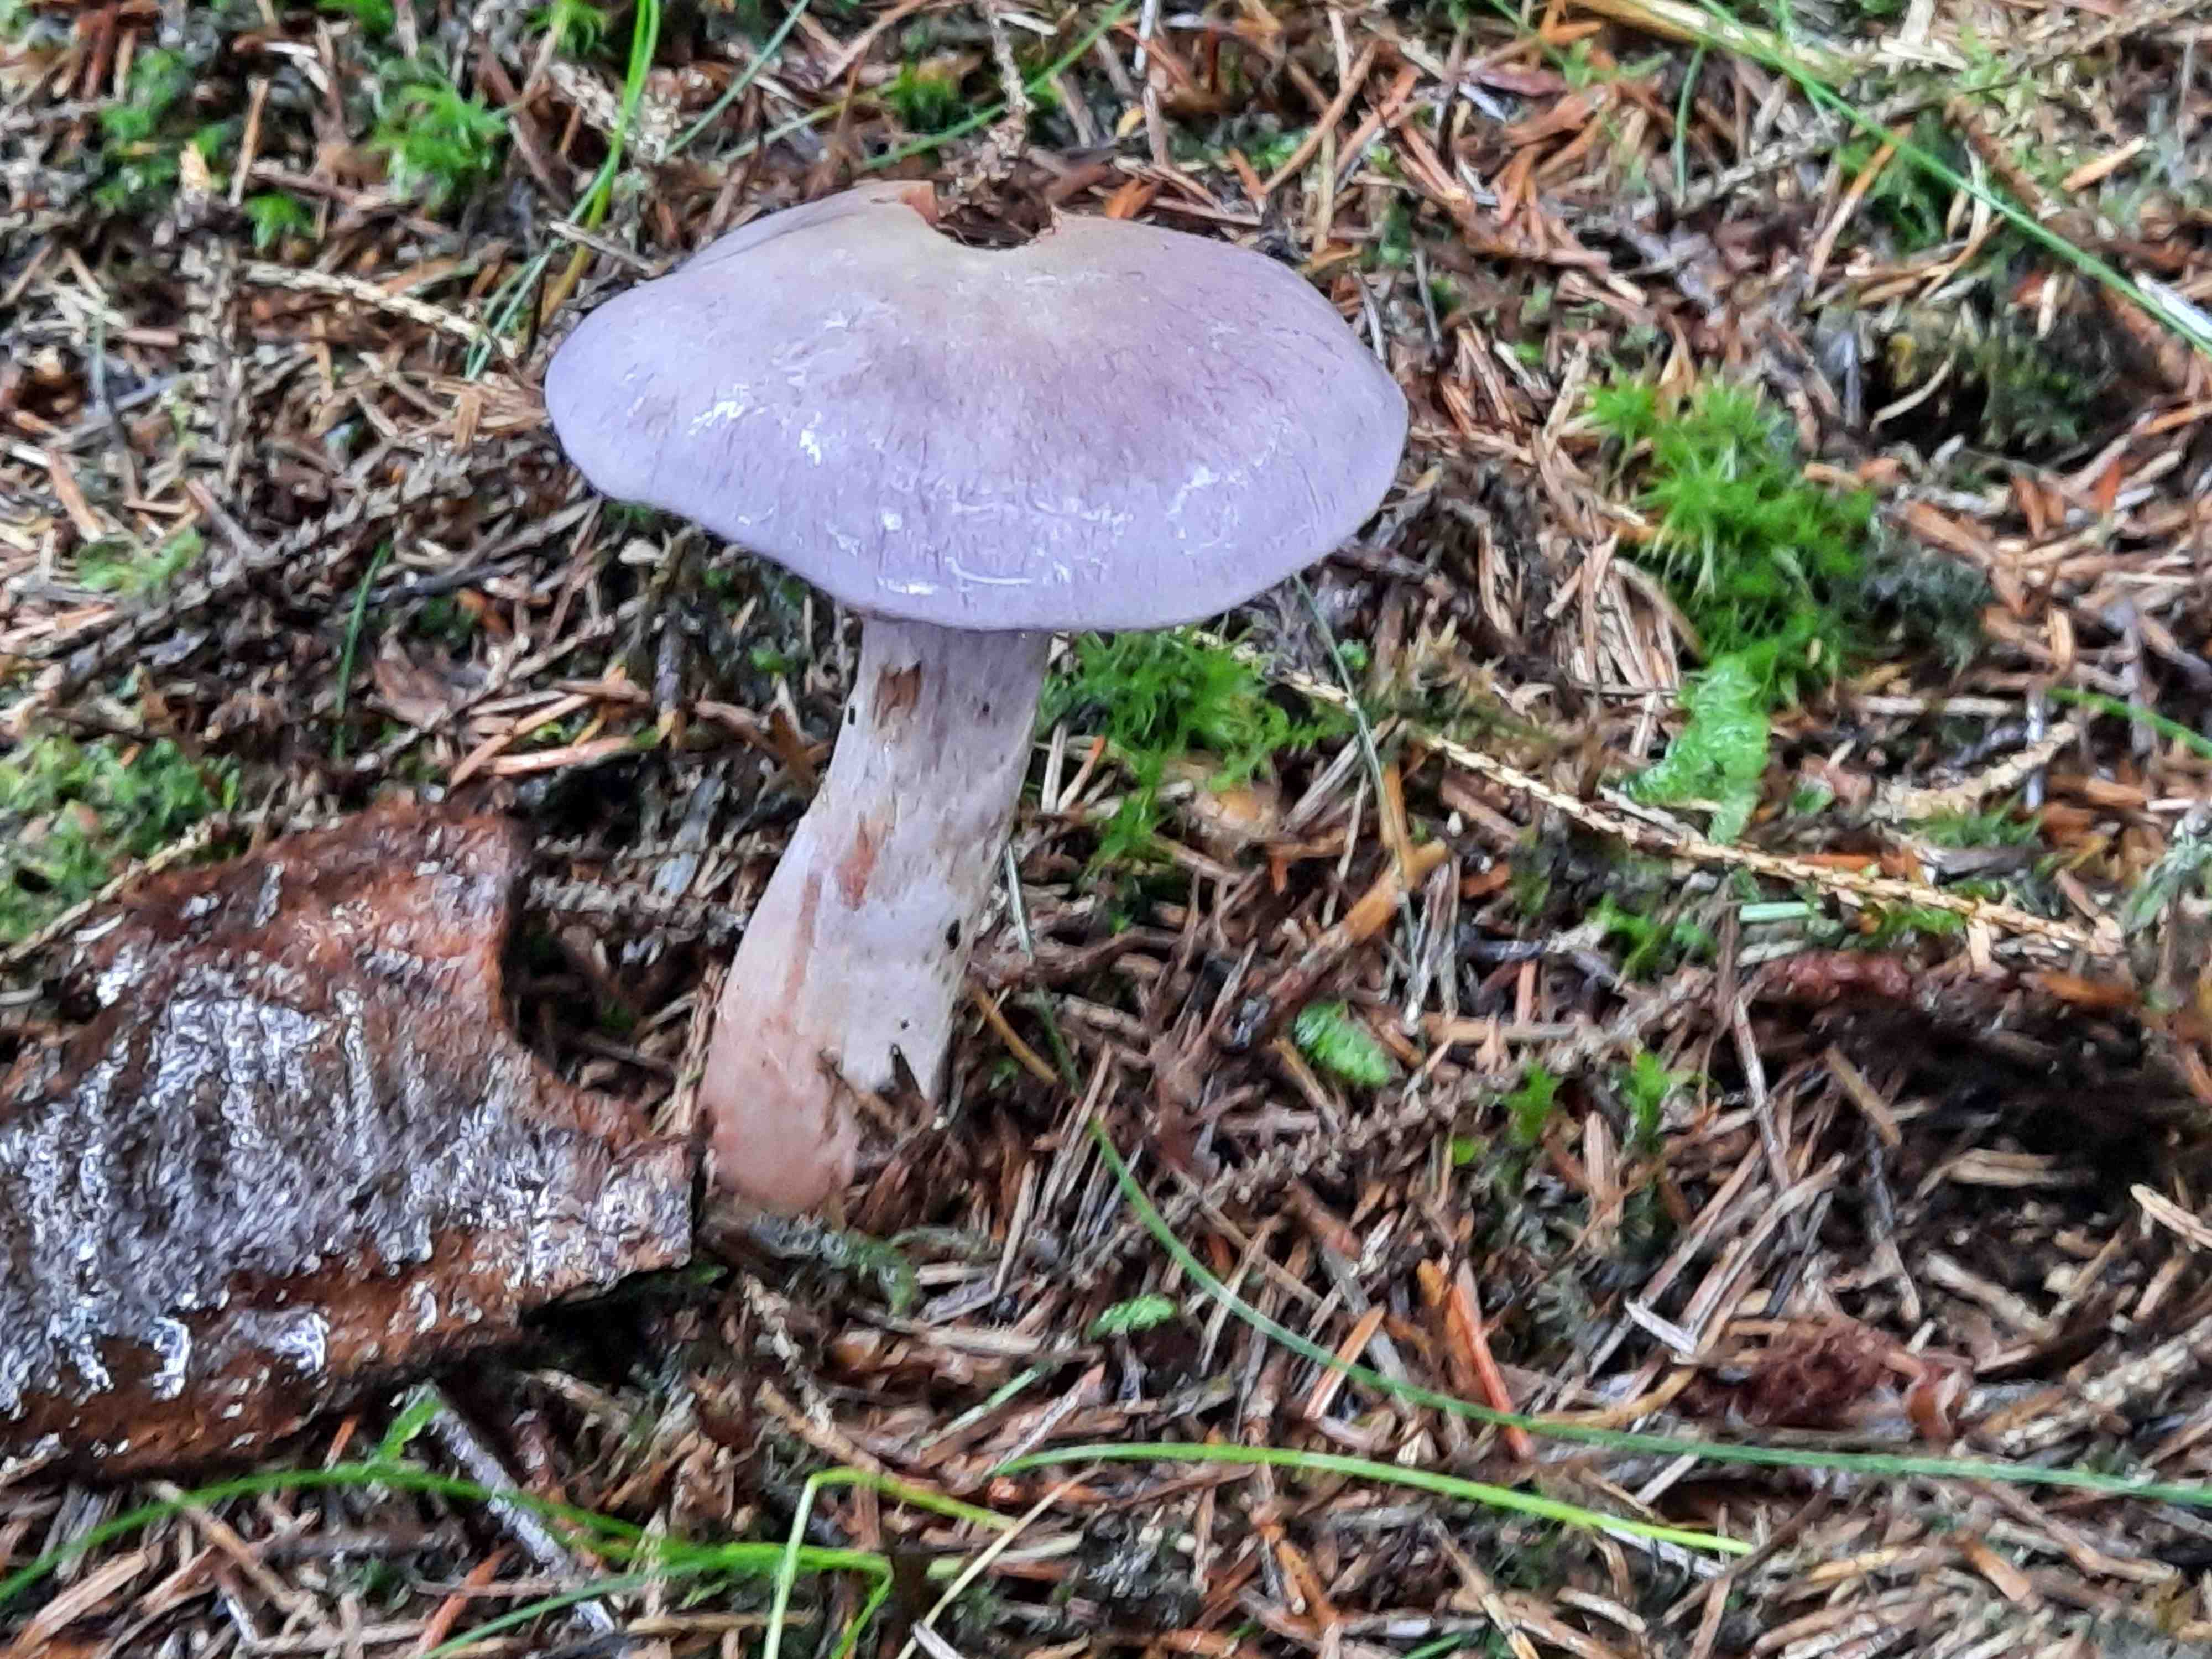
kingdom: Fungi
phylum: Basidiomycota
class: Agaricomycetes
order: Agaricales
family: Cortinariaceae
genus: Cortinarius
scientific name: Cortinarius camphoratus
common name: stinkende slørhat
